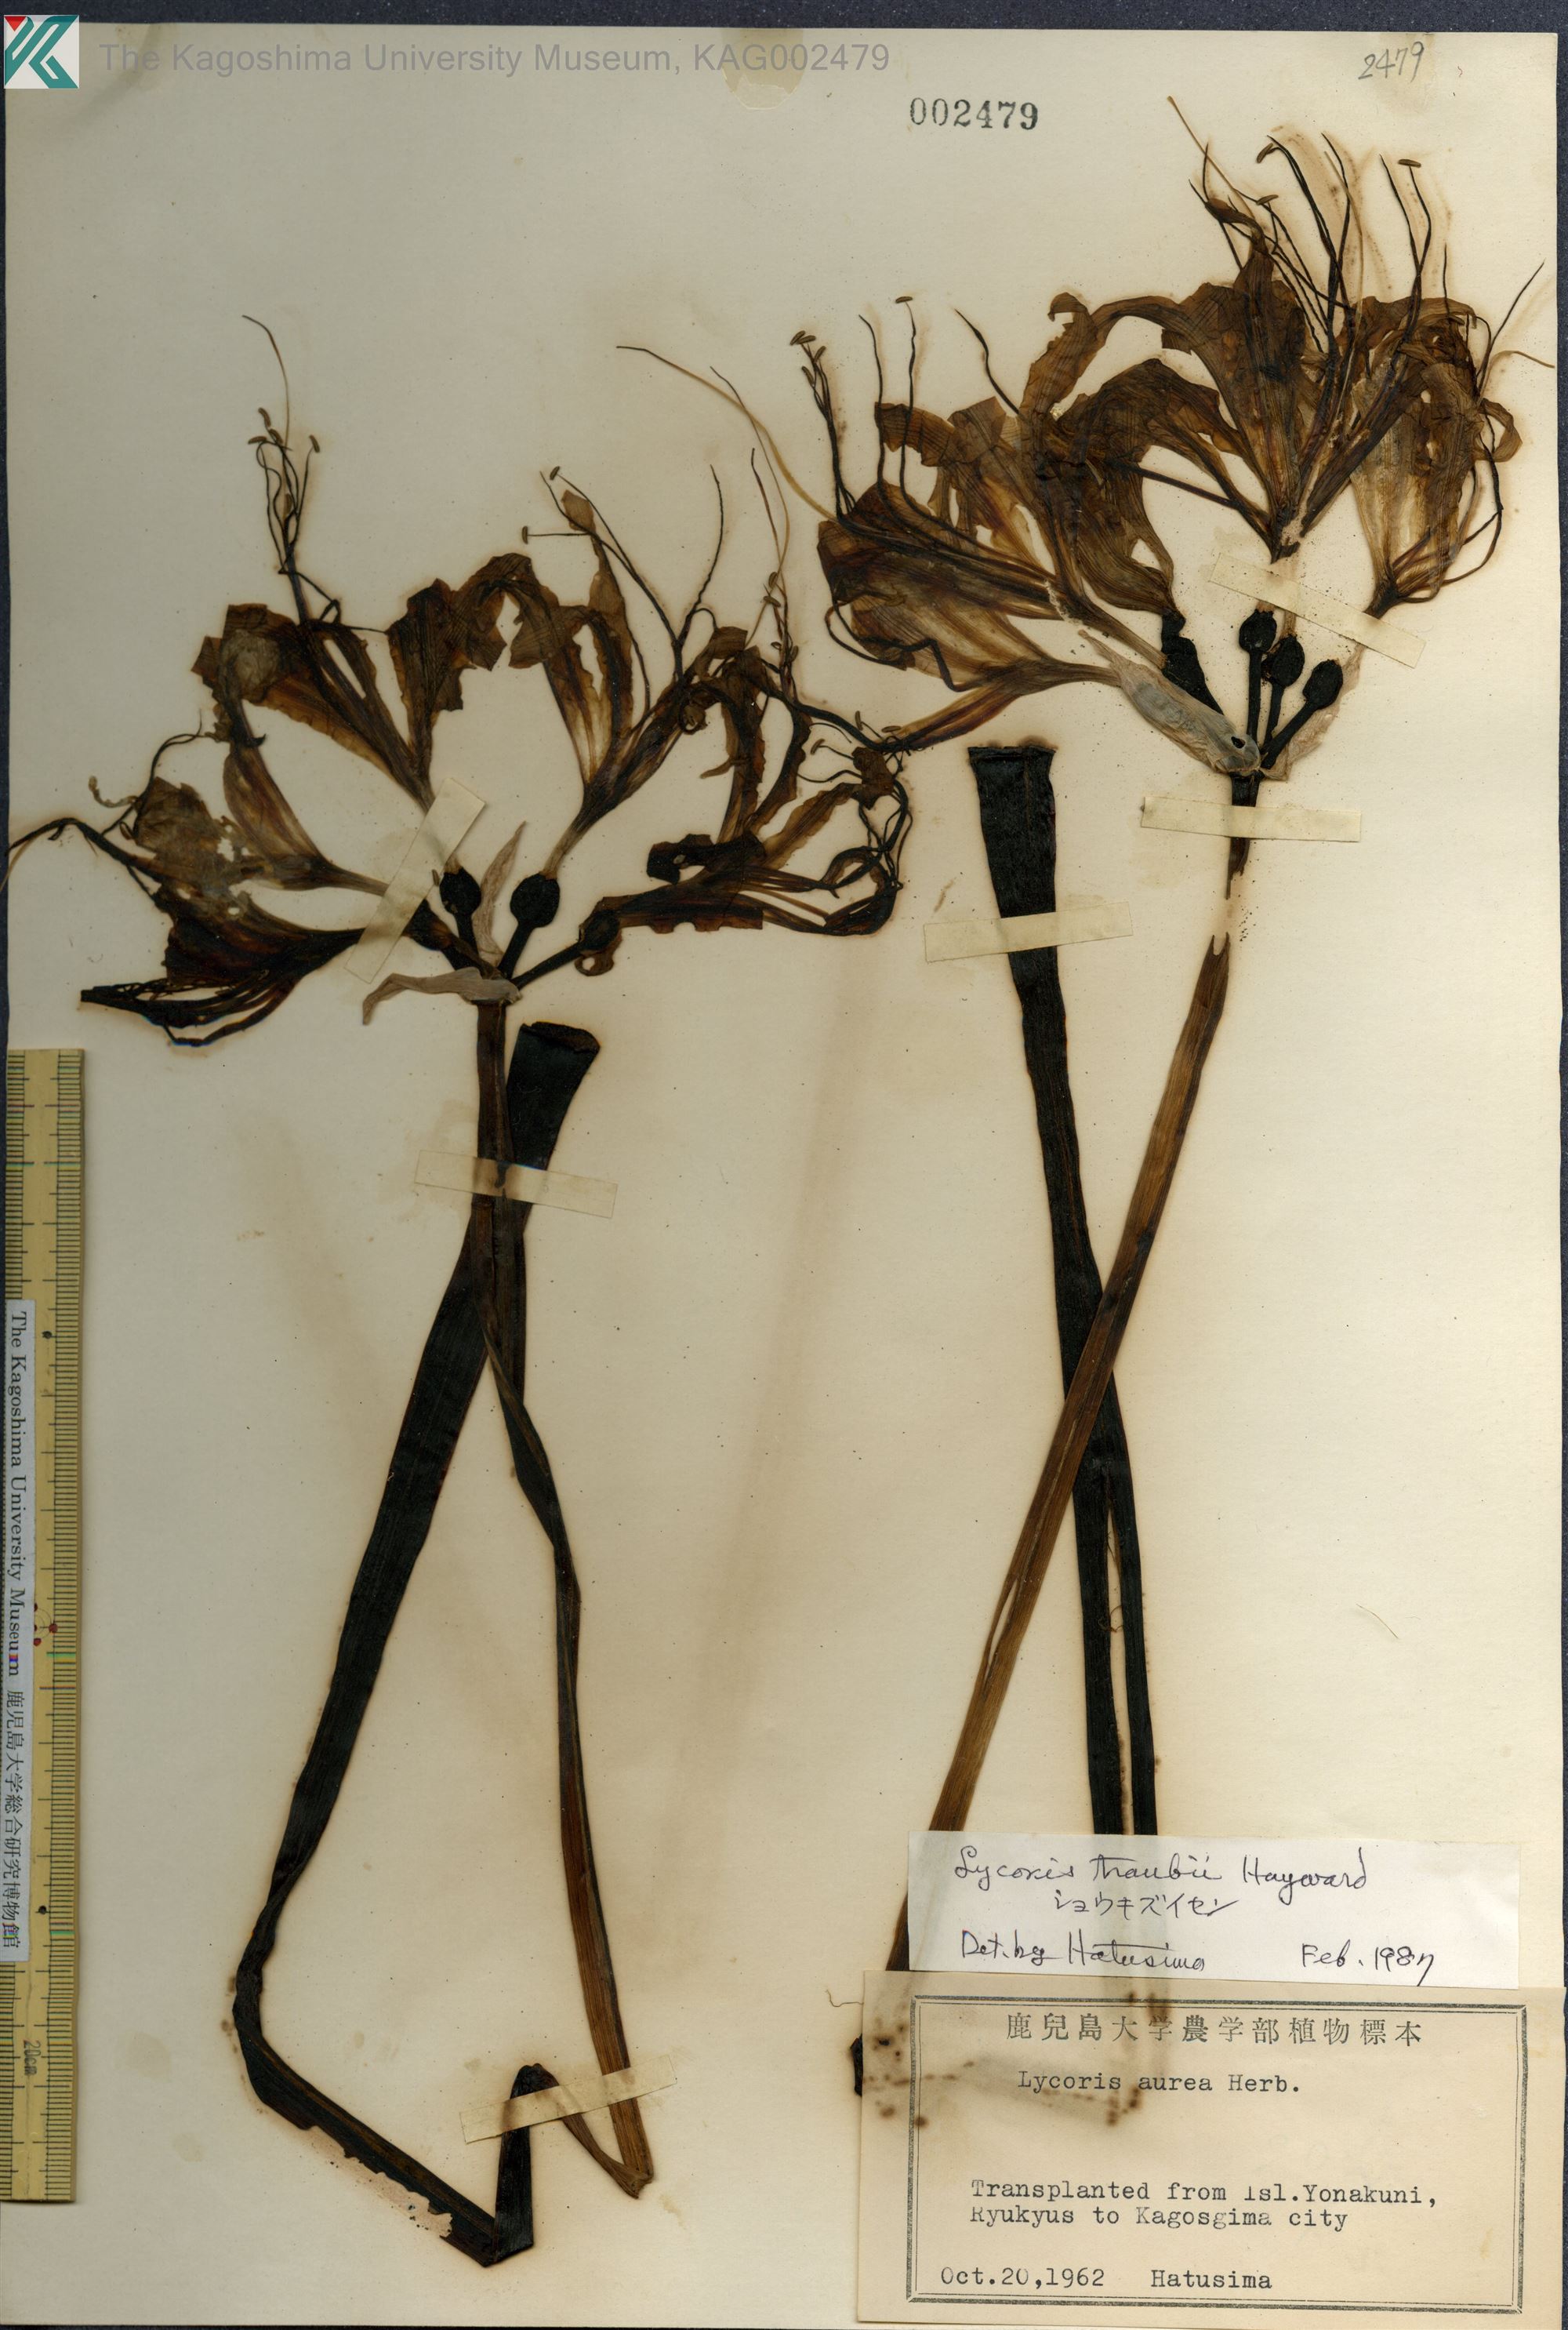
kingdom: Plantae
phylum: Tracheophyta
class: Liliopsida
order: Asparagales
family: Amaryllidaceae
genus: Lycoris
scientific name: Lycoris traubii
